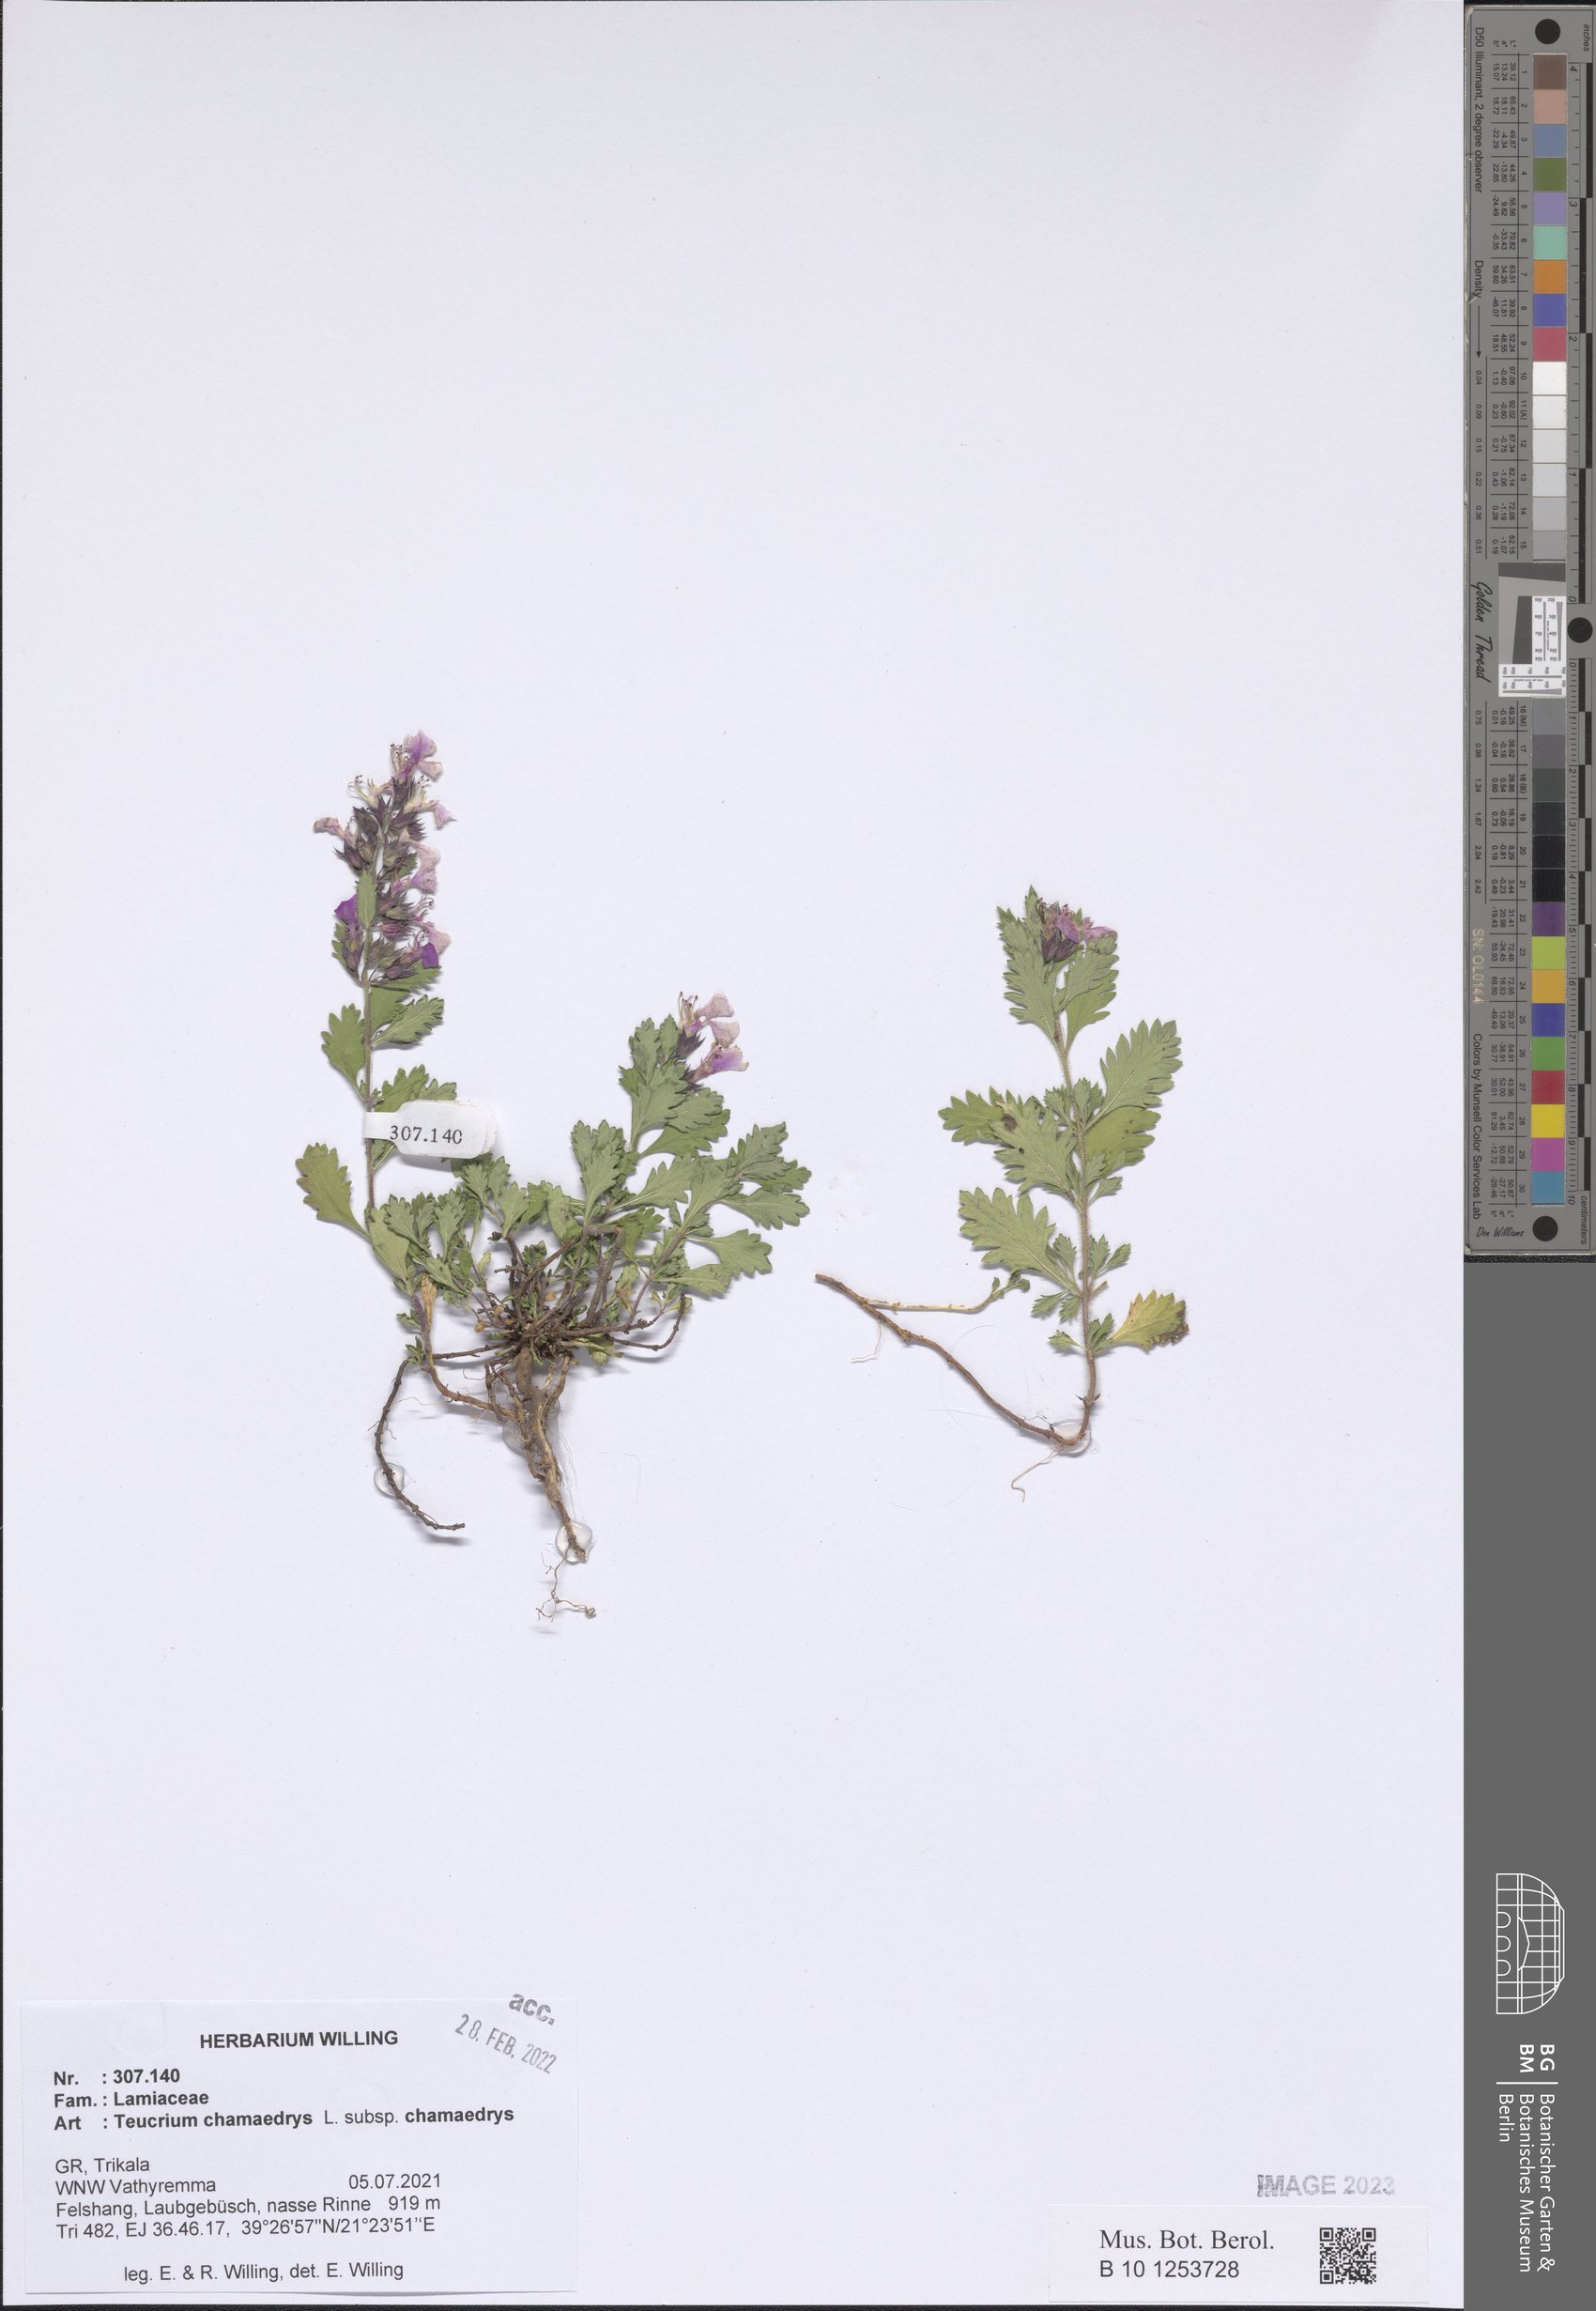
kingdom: Plantae
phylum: Tracheophyta
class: Magnoliopsida
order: Lamiales
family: Lamiaceae
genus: Teucrium
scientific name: Teucrium chamaedrys
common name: Wall germander
